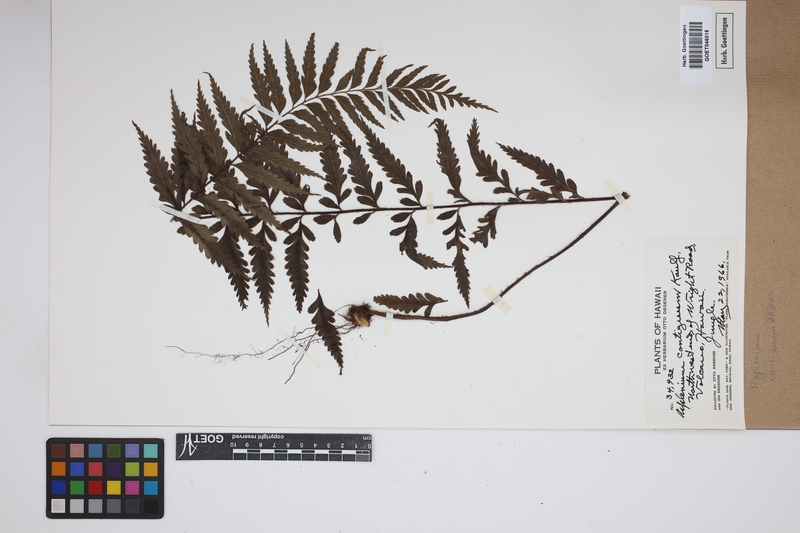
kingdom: Plantae
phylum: Tracheophyta
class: Polypodiopsida
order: Polypodiales
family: Aspleniaceae
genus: Asplenium
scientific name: Asplenium contiguum
